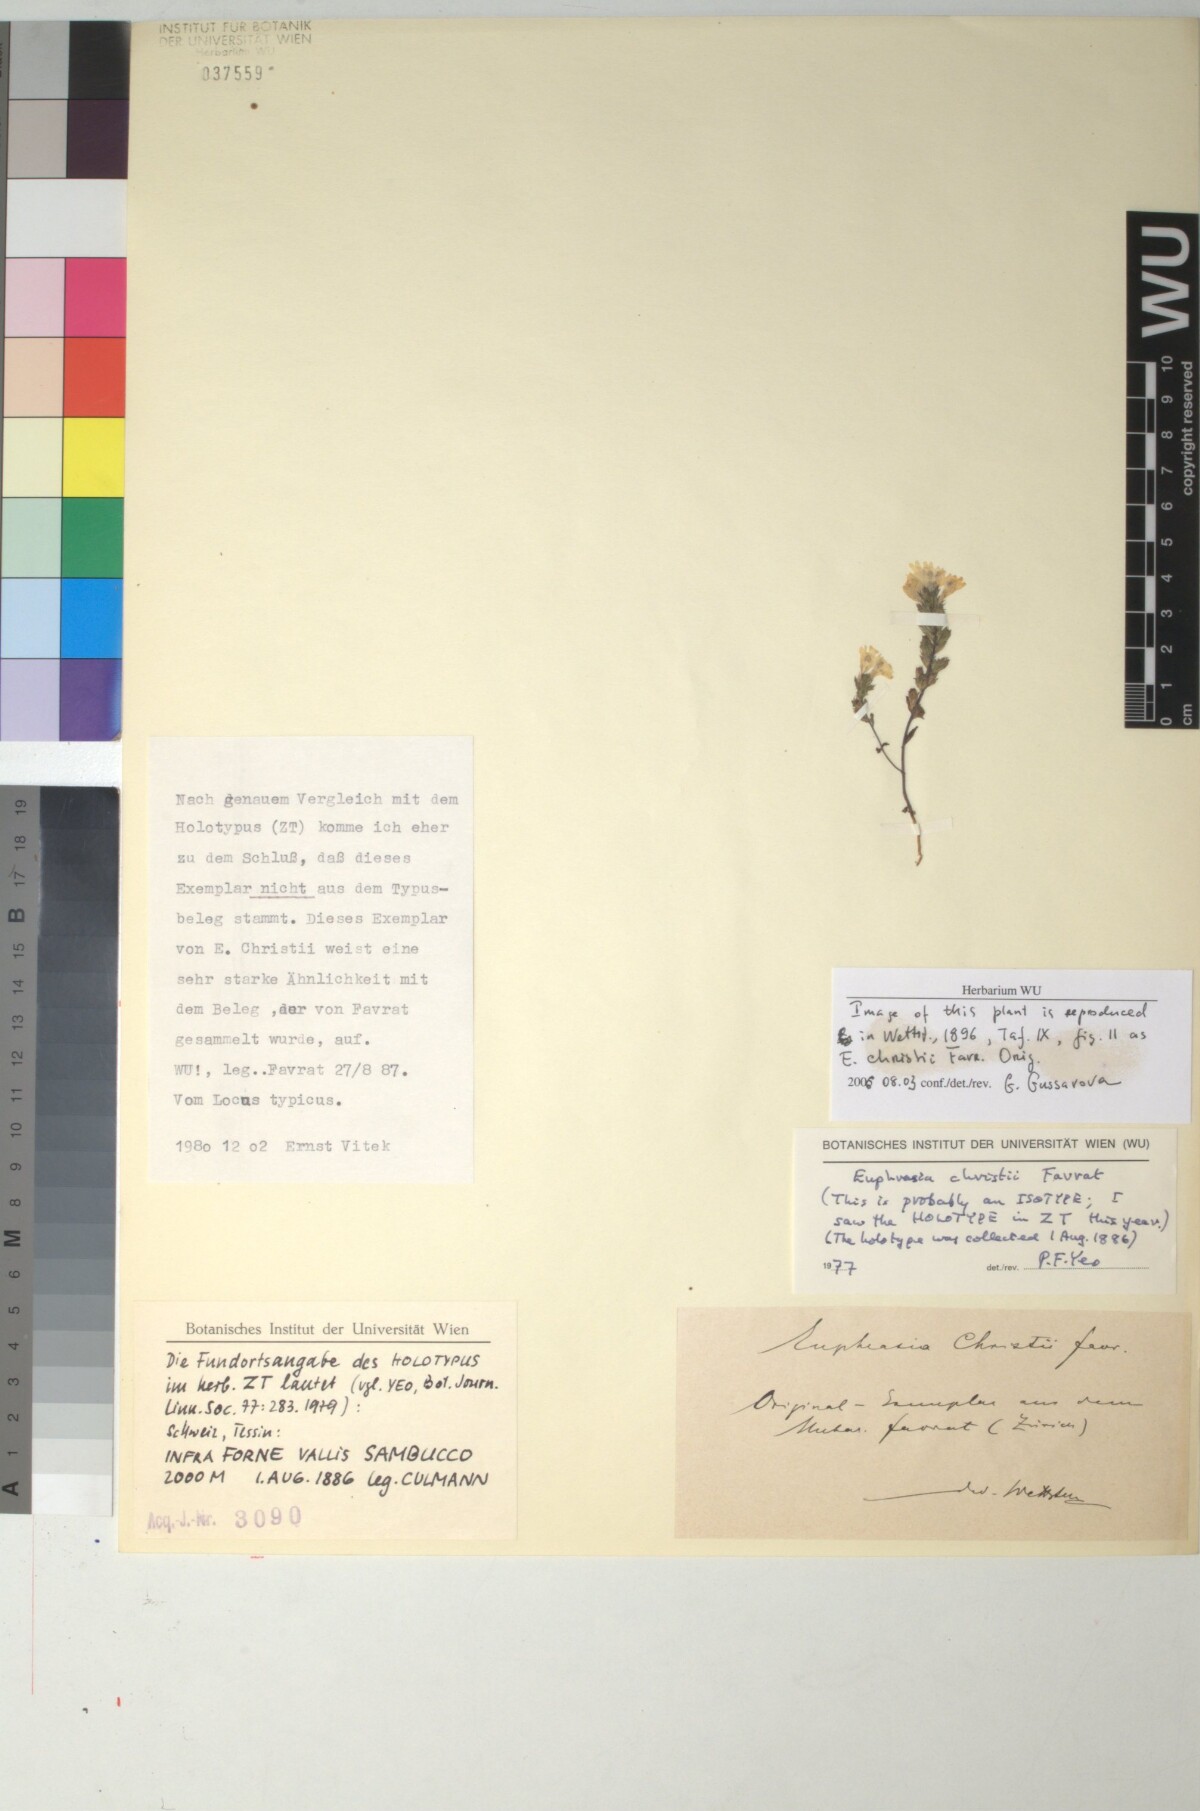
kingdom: Plantae
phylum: Tracheophyta
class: Magnoliopsida
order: Lamiales
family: Orobanchaceae
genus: Euphrasia
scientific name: Euphrasia christii
